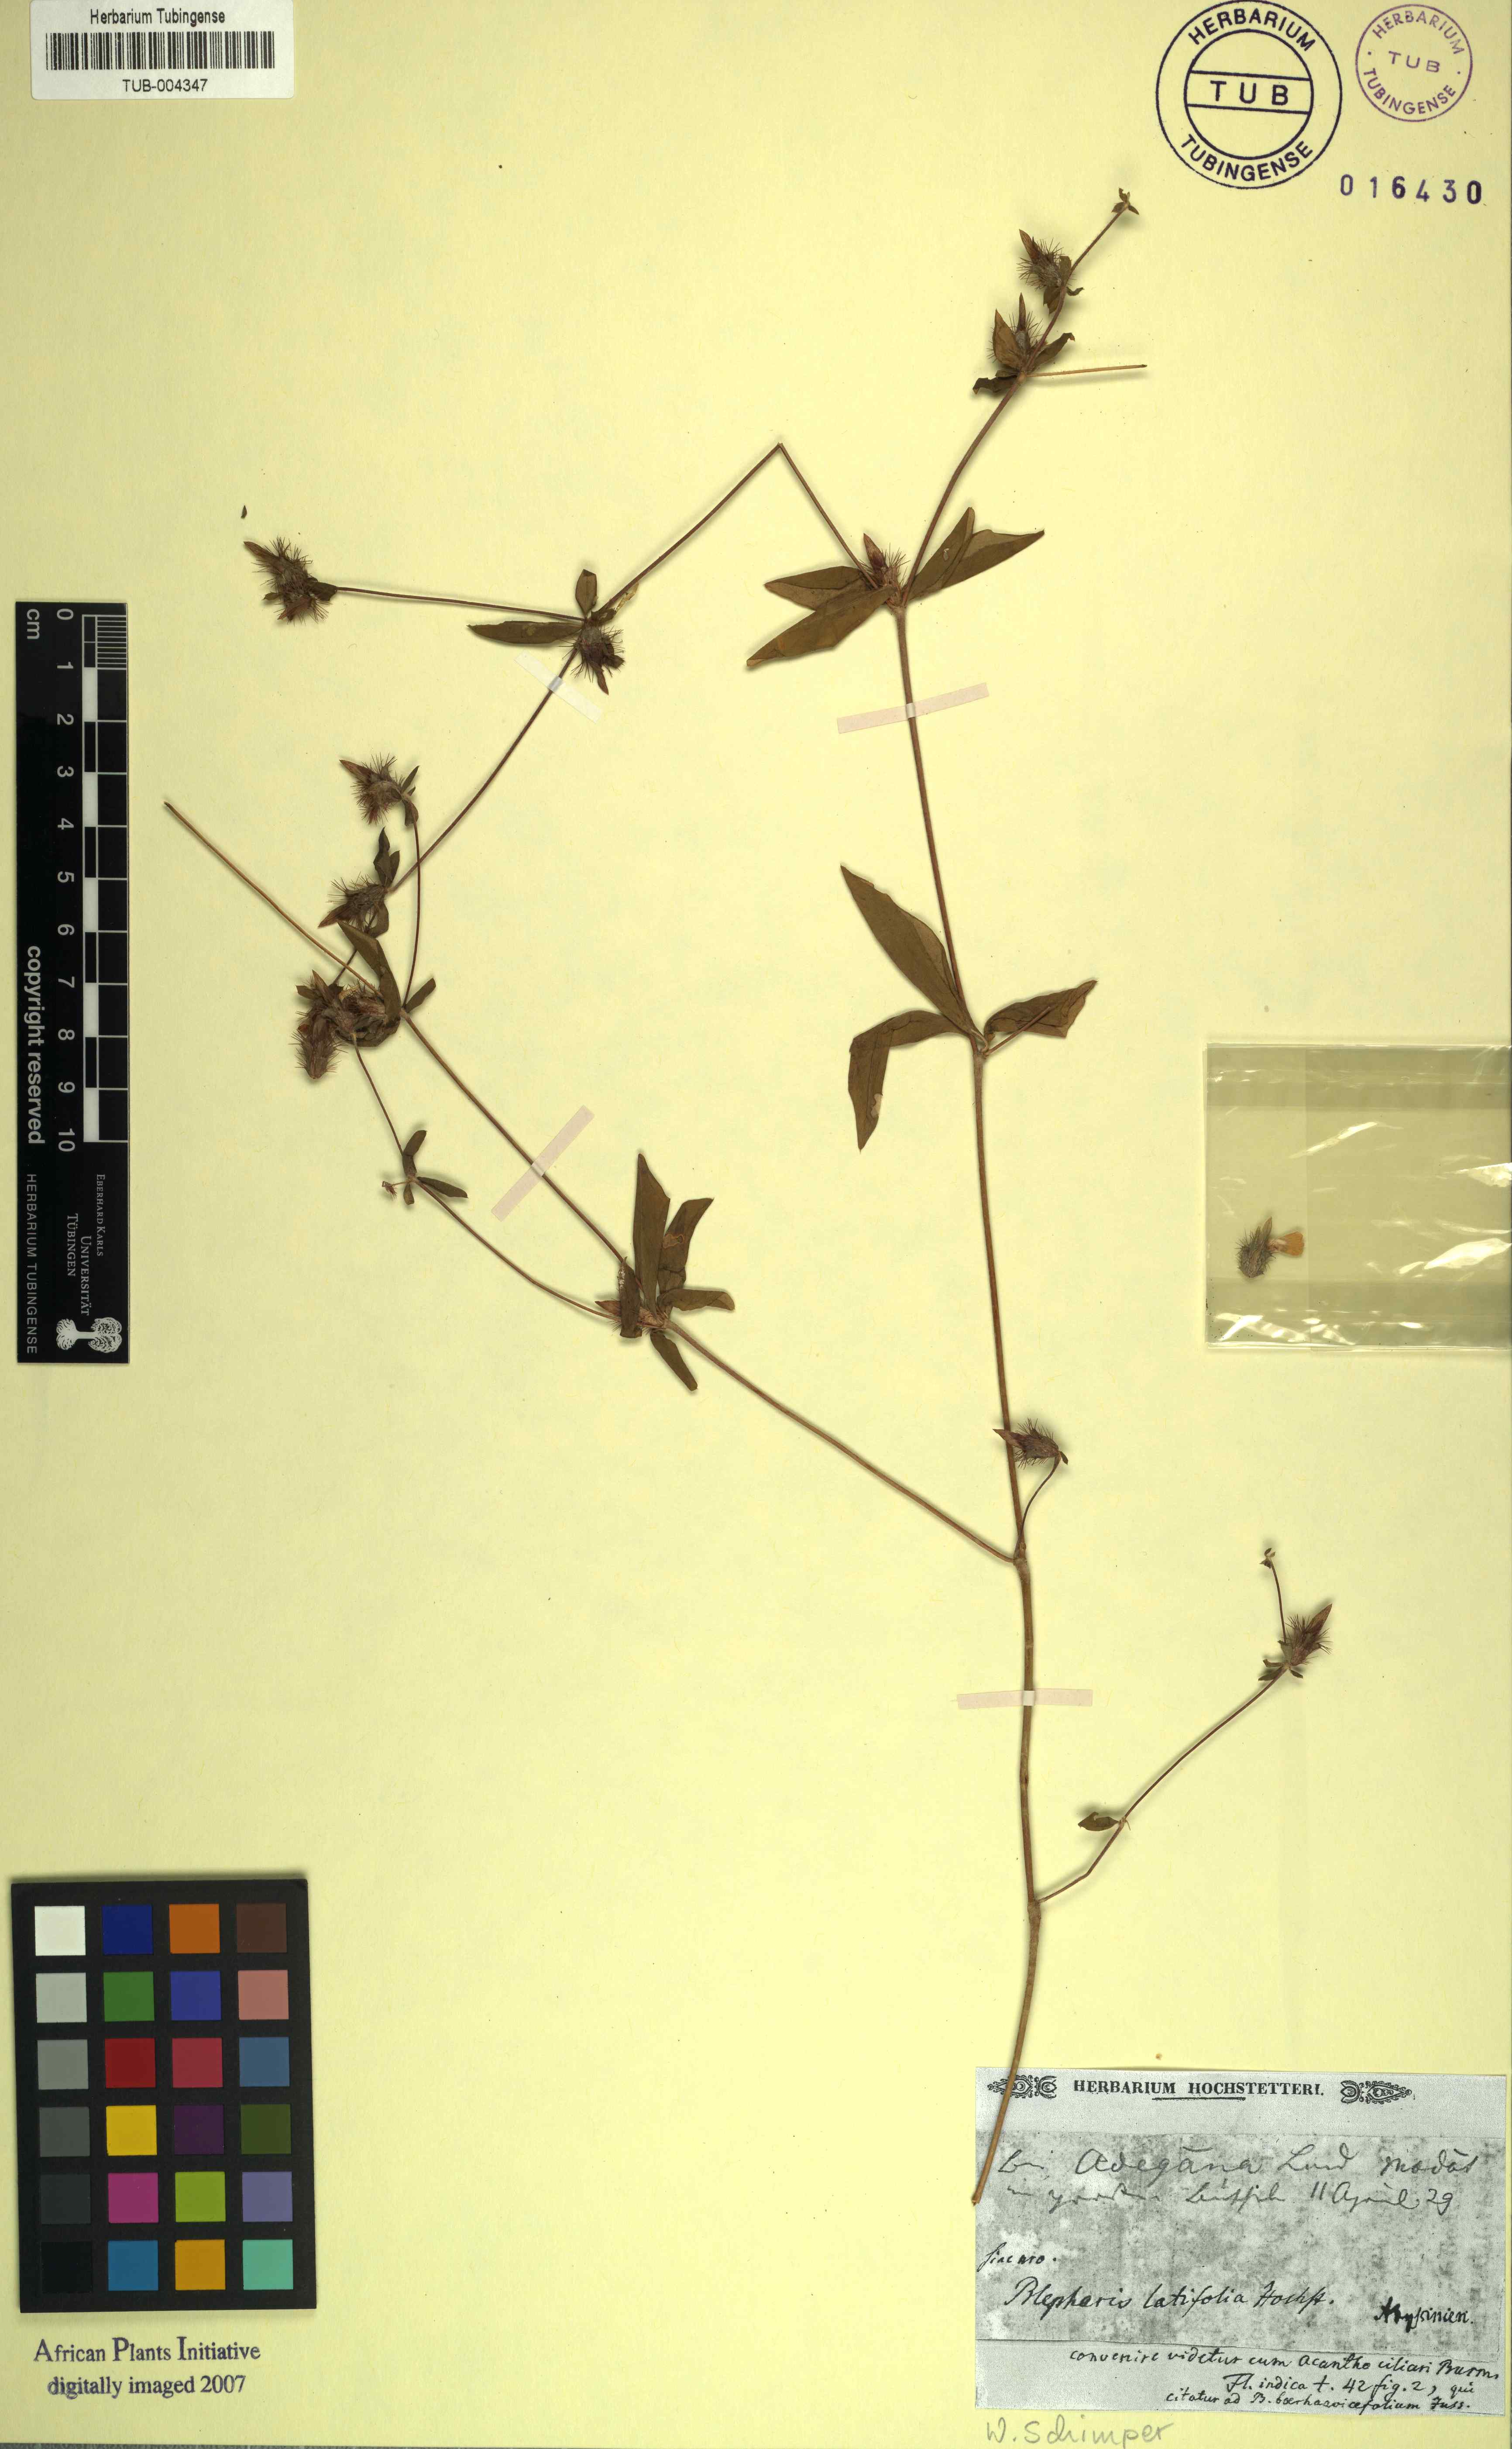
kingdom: Plantae
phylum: Tracheophyta
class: Magnoliopsida
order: Lamiales
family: Acanthaceae
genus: Blepharis
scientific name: Blepharis
